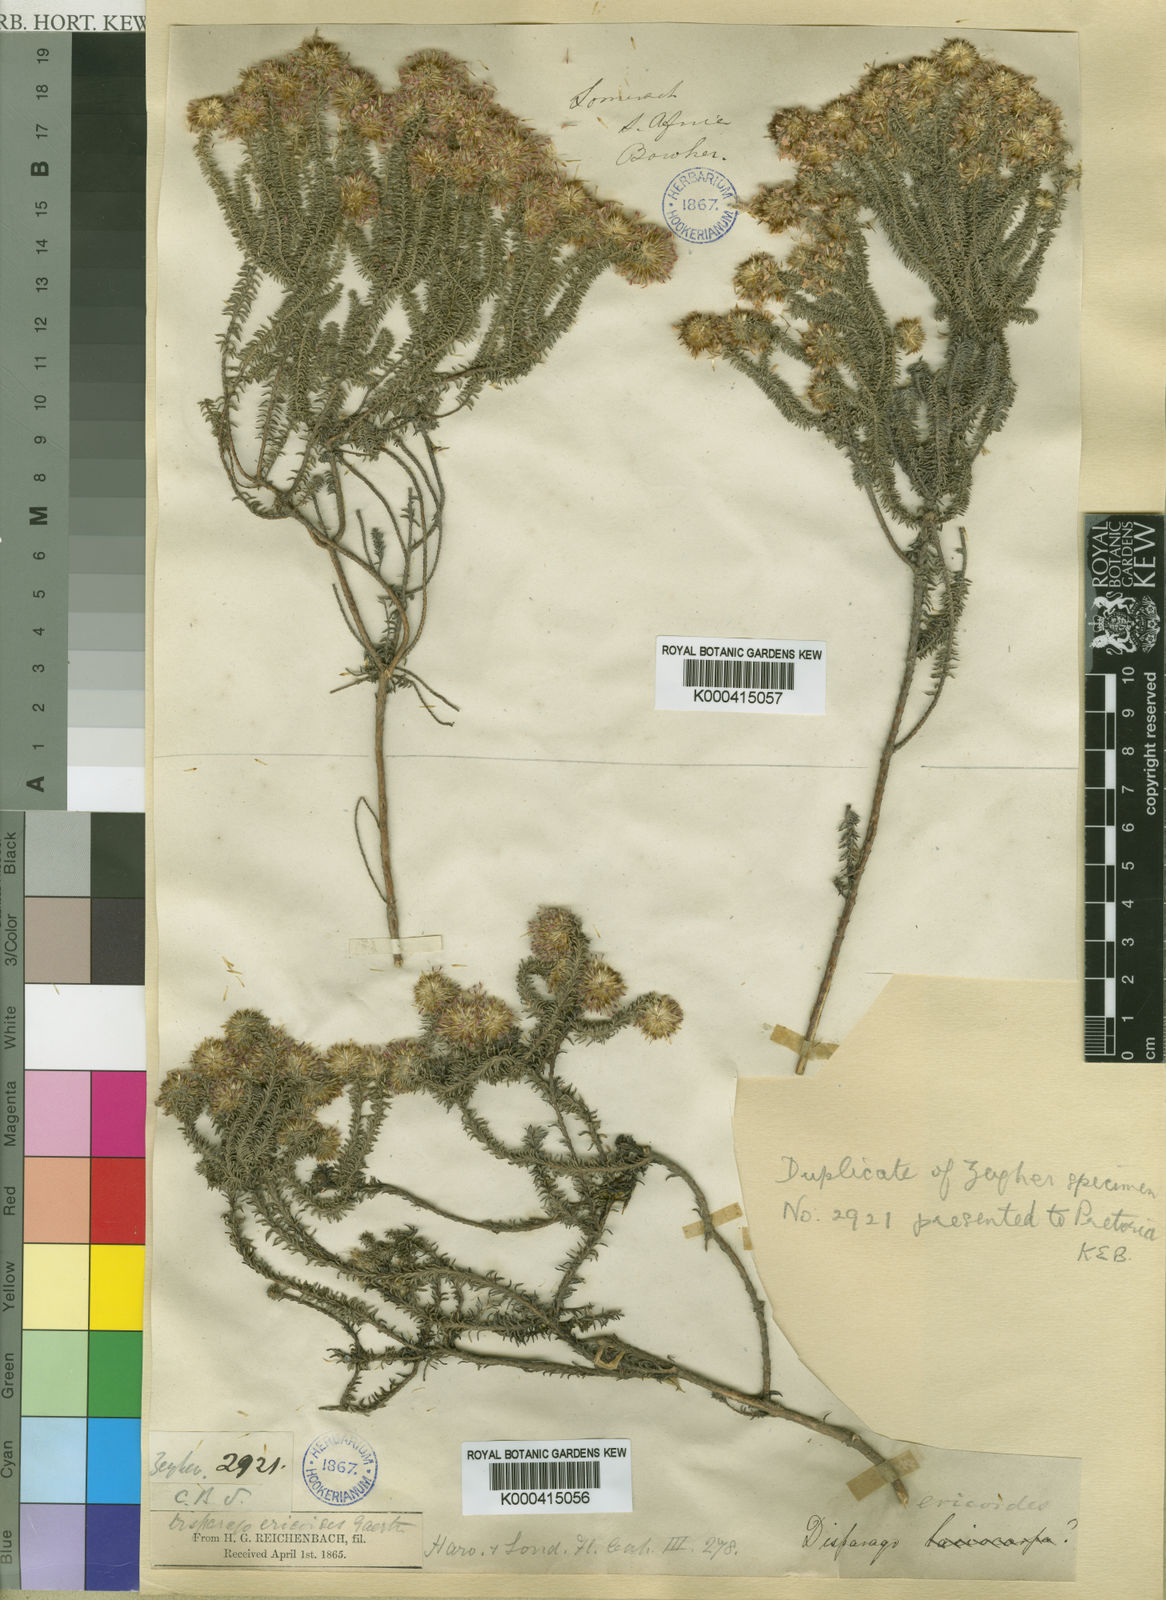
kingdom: Plantae
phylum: Tracheophyta
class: Magnoliopsida
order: Asterales
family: Asteraceae
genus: Disparago
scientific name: Disparago tortilis
